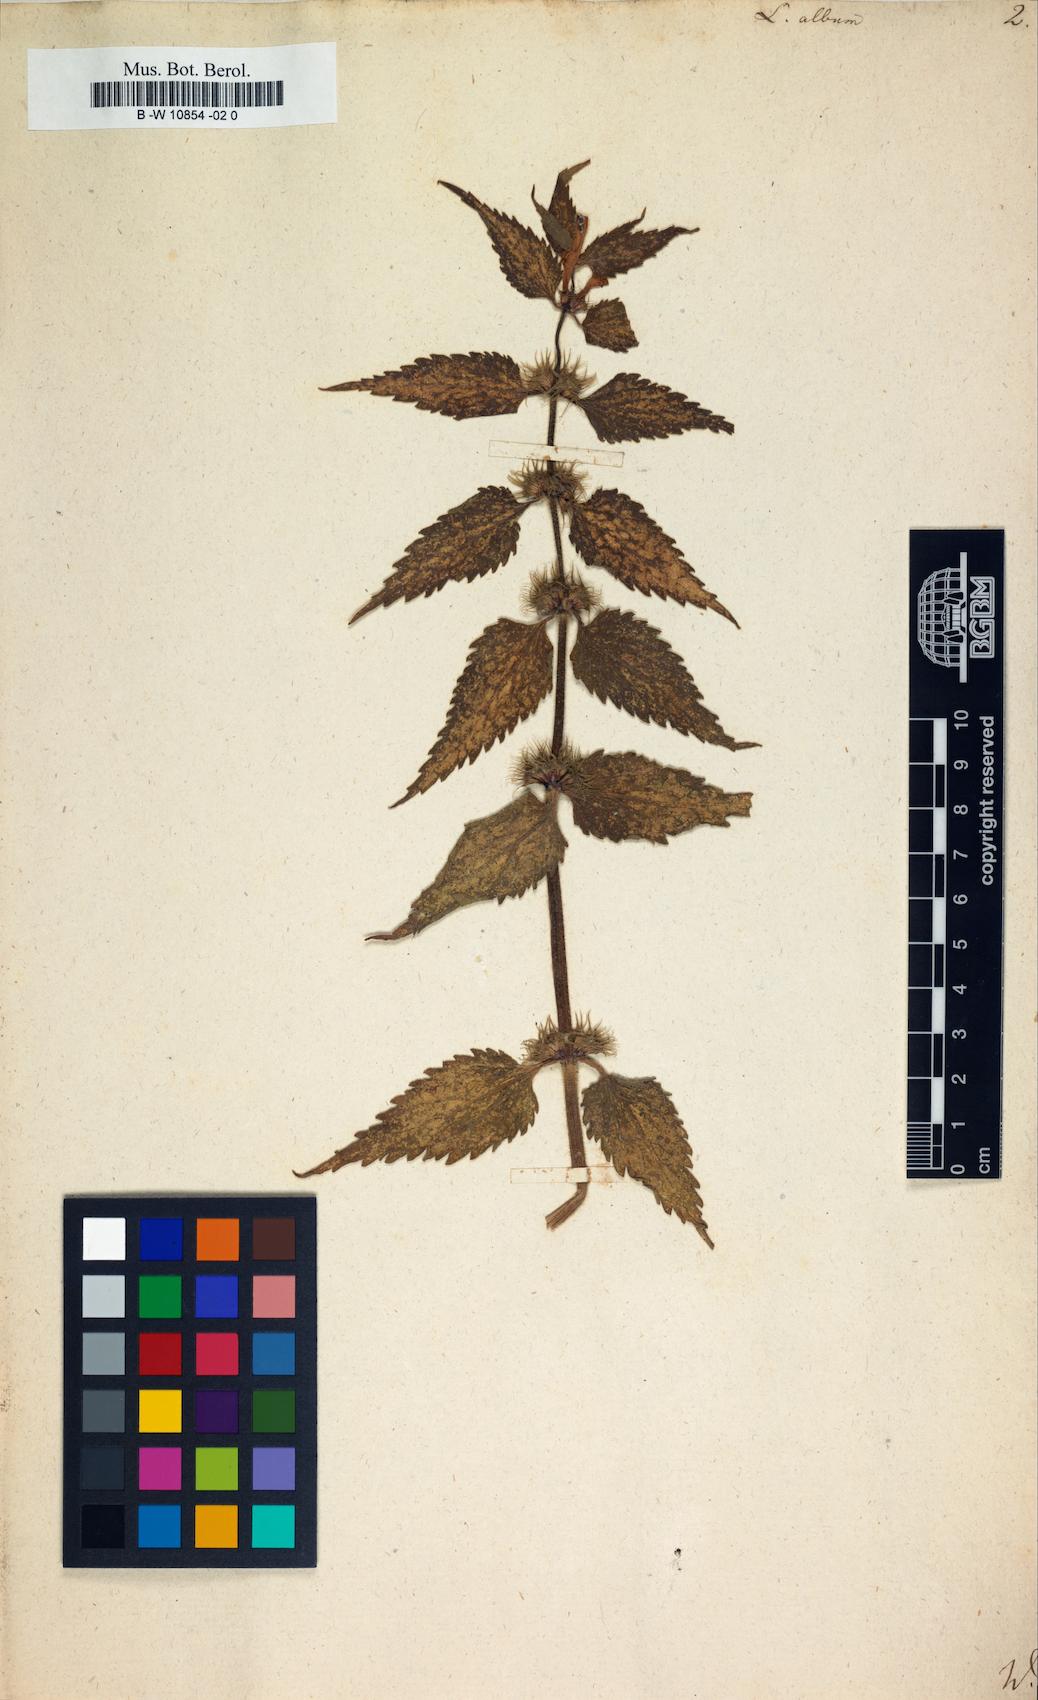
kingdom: Plantae
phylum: Tracheophyta
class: Magnoliopsida
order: Lamiales
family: Lamiaceae
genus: Lamium
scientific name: Lamium album
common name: White dead-nettle
